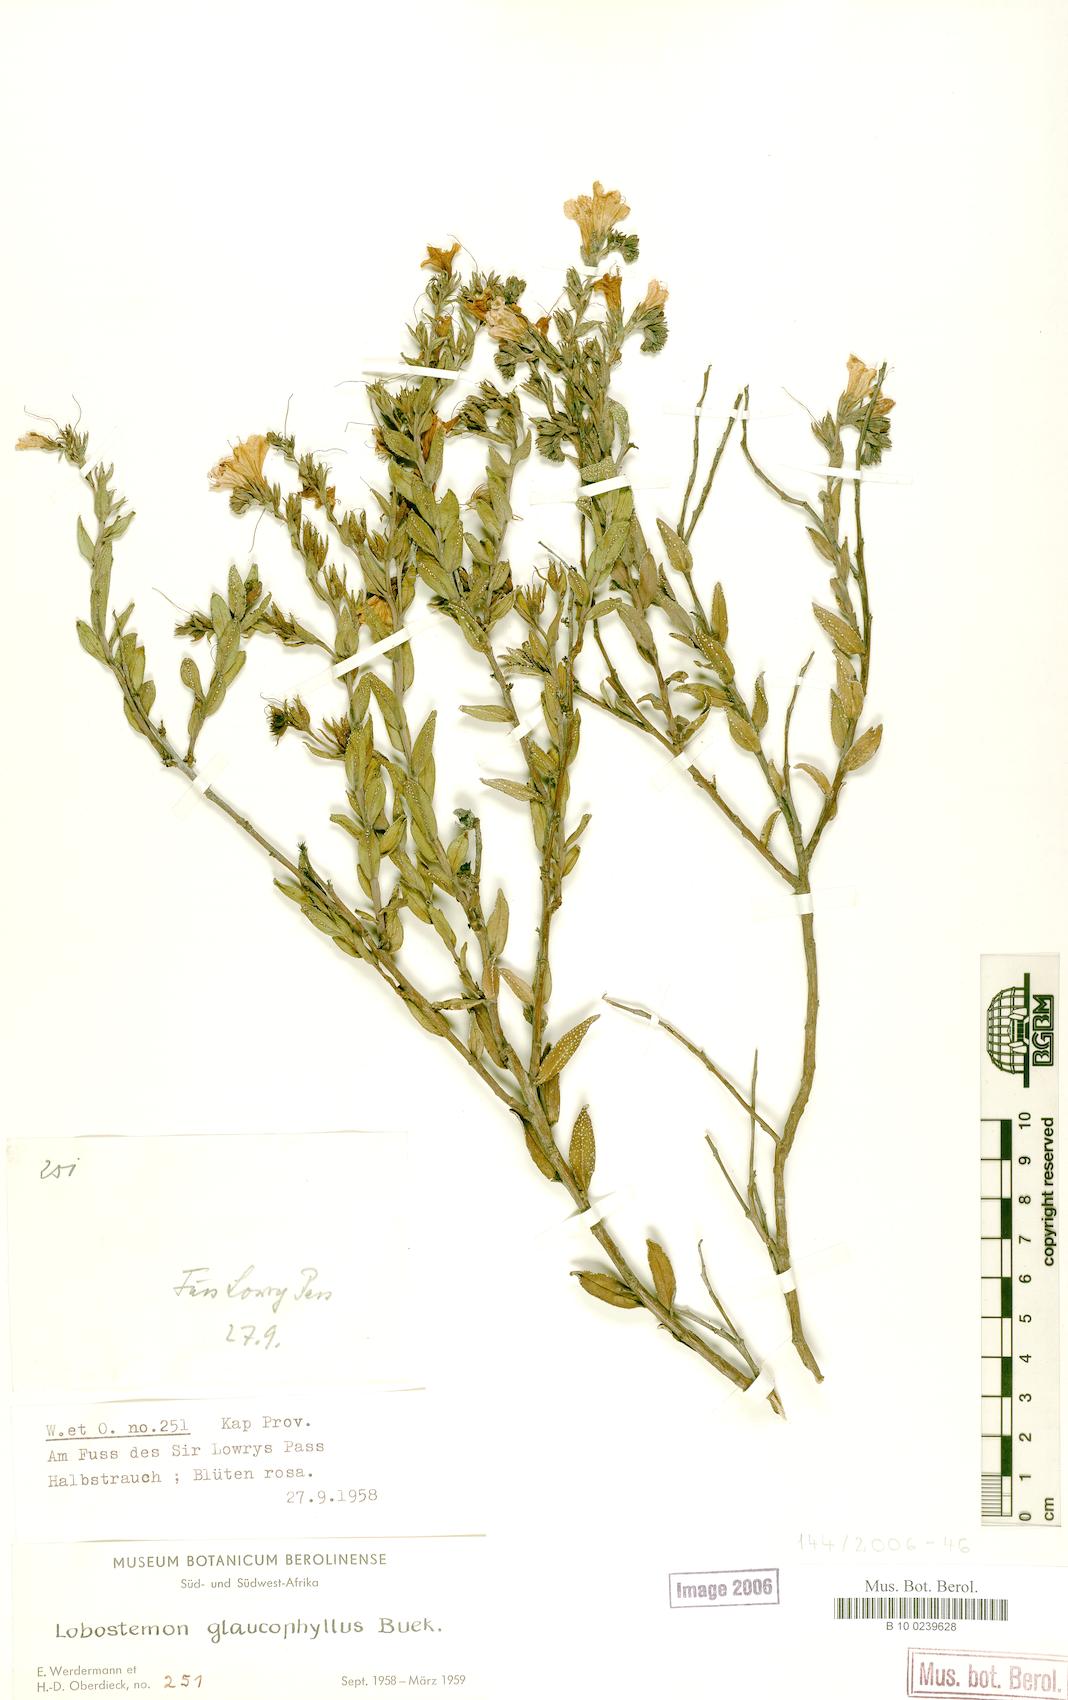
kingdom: Plantae
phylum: Tracheophyta
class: Magnoliopsida
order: Boraginales
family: Boraginaceae
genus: Lobostemon
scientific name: Lobostemon glaucophyllus
